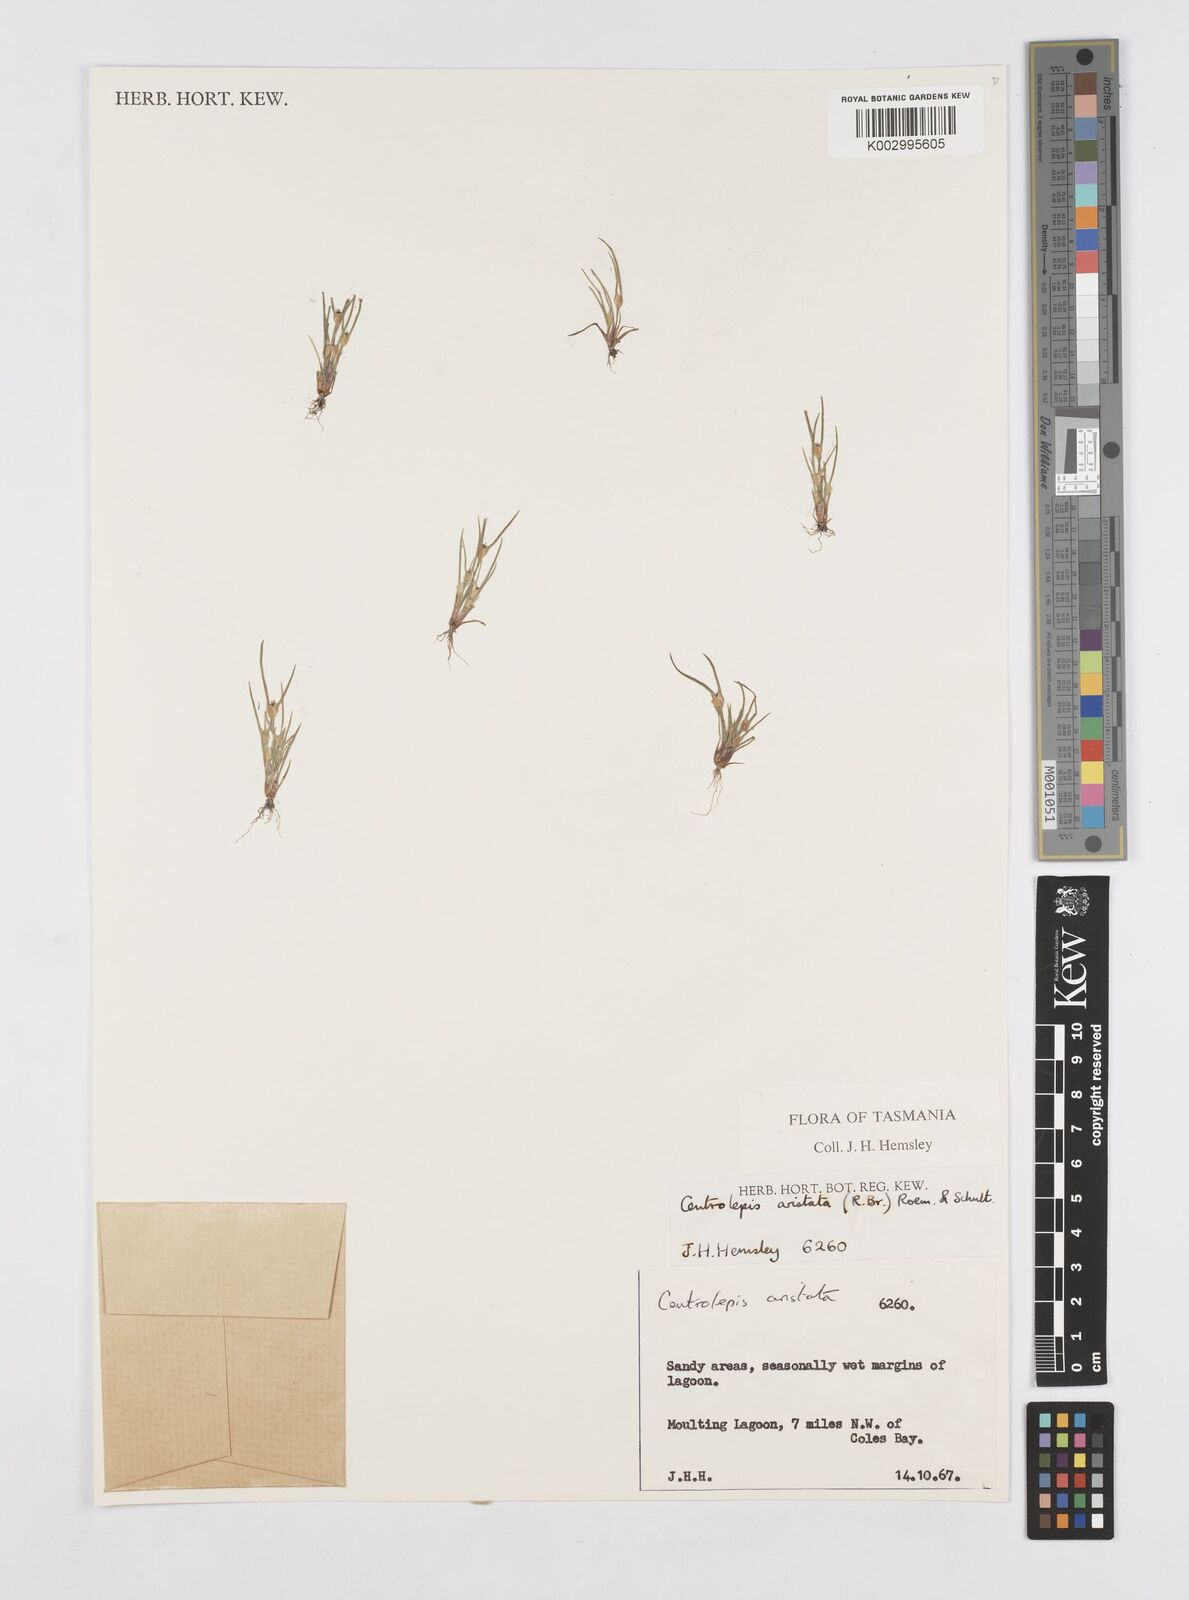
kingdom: Plantae
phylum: Tracheophyta
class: Liliopsida
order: Poales
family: Restionaceae
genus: Centrolepis
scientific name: Centrolepis aristata
